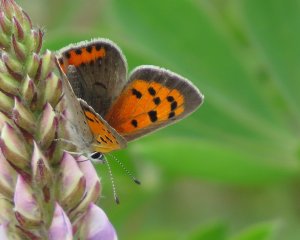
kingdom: Animalia
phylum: Arthropoda
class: Insecta
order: Lepidoptera
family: Lycaenidae
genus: Lycaena
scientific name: Lycaena phlaeas
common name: American Copper
